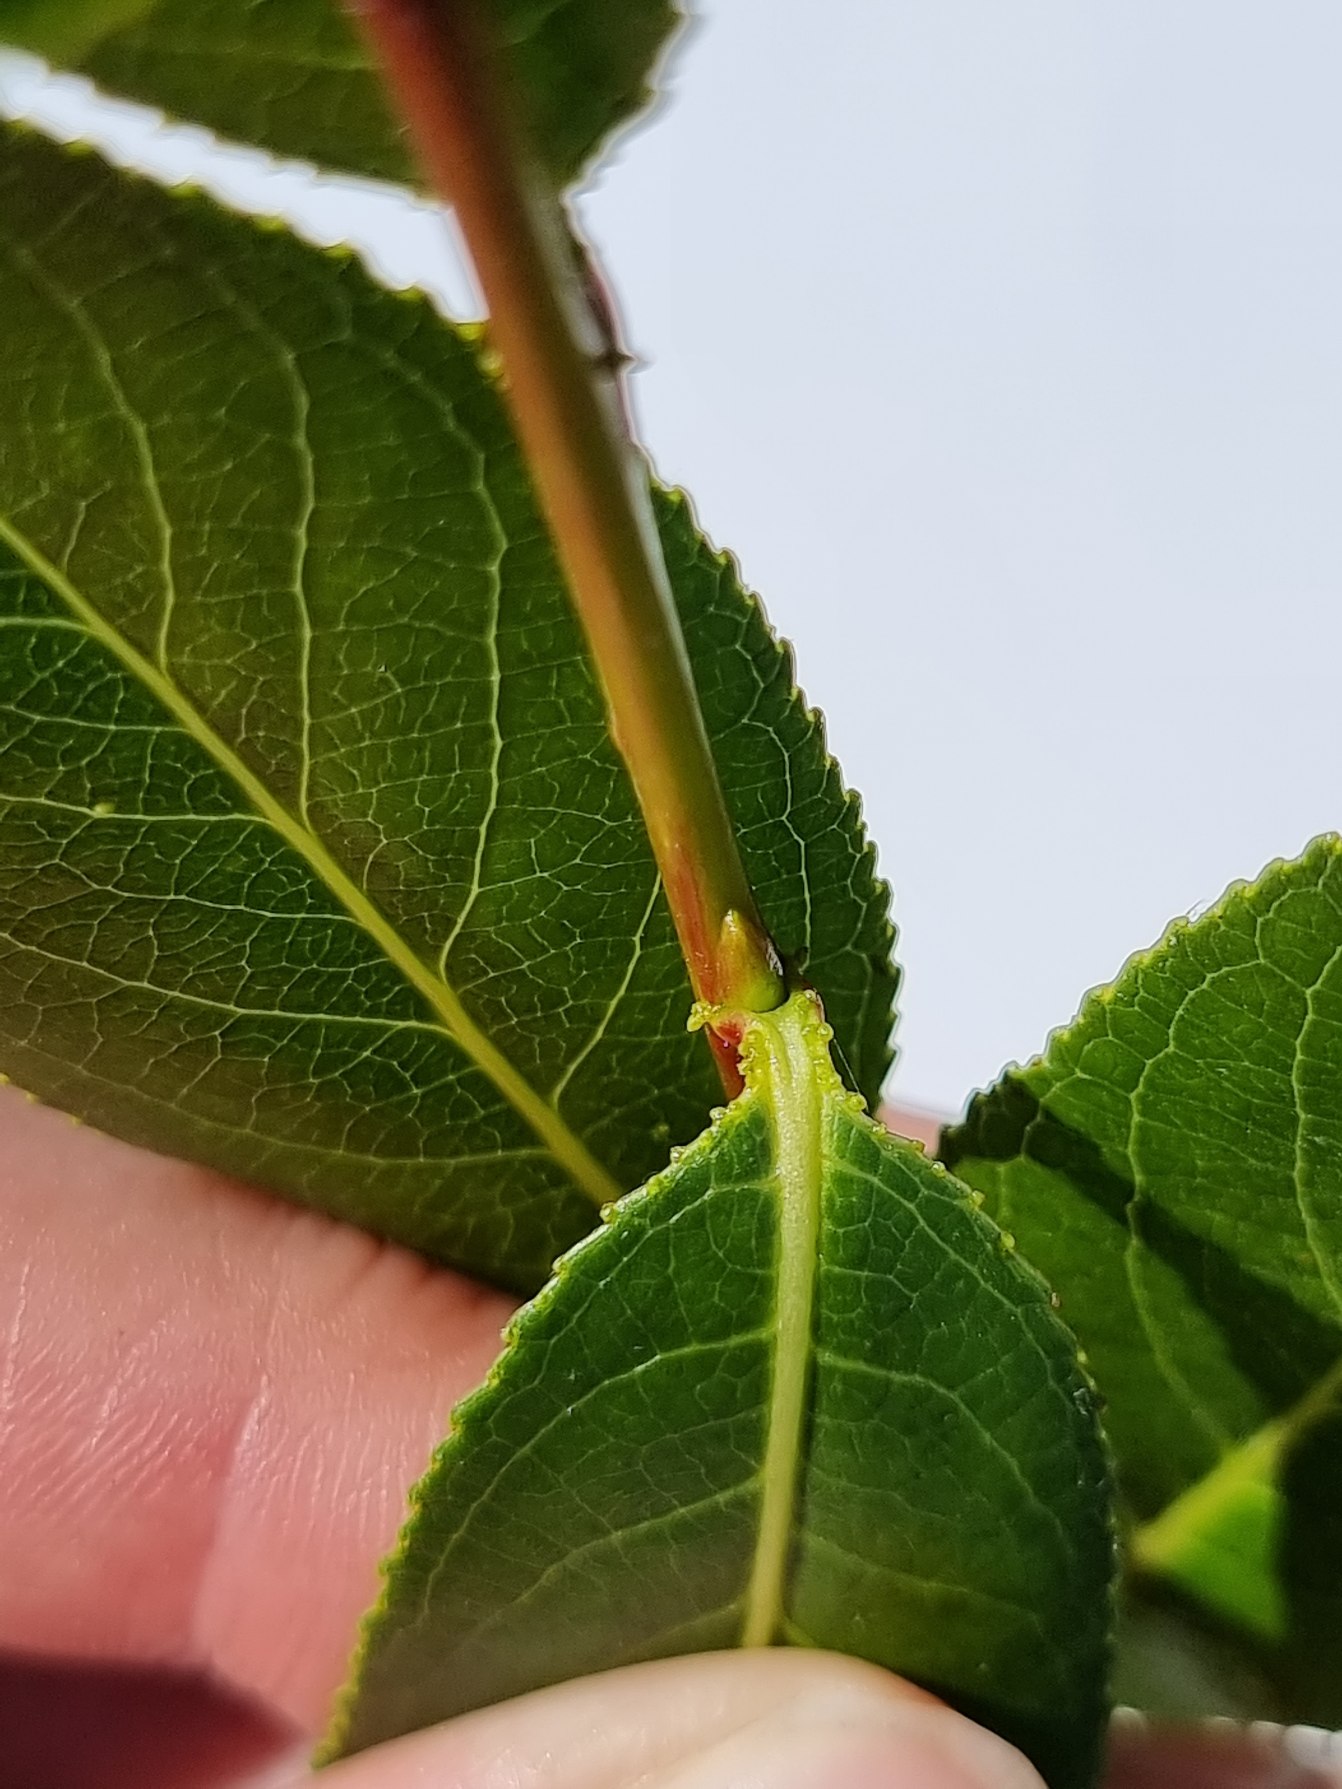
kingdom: Plantae
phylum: Tracheophyta
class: Magnoliopsida
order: Malpighiales
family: Salicaceae
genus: Salix
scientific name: Salix pentandra
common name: Femhannet pil
